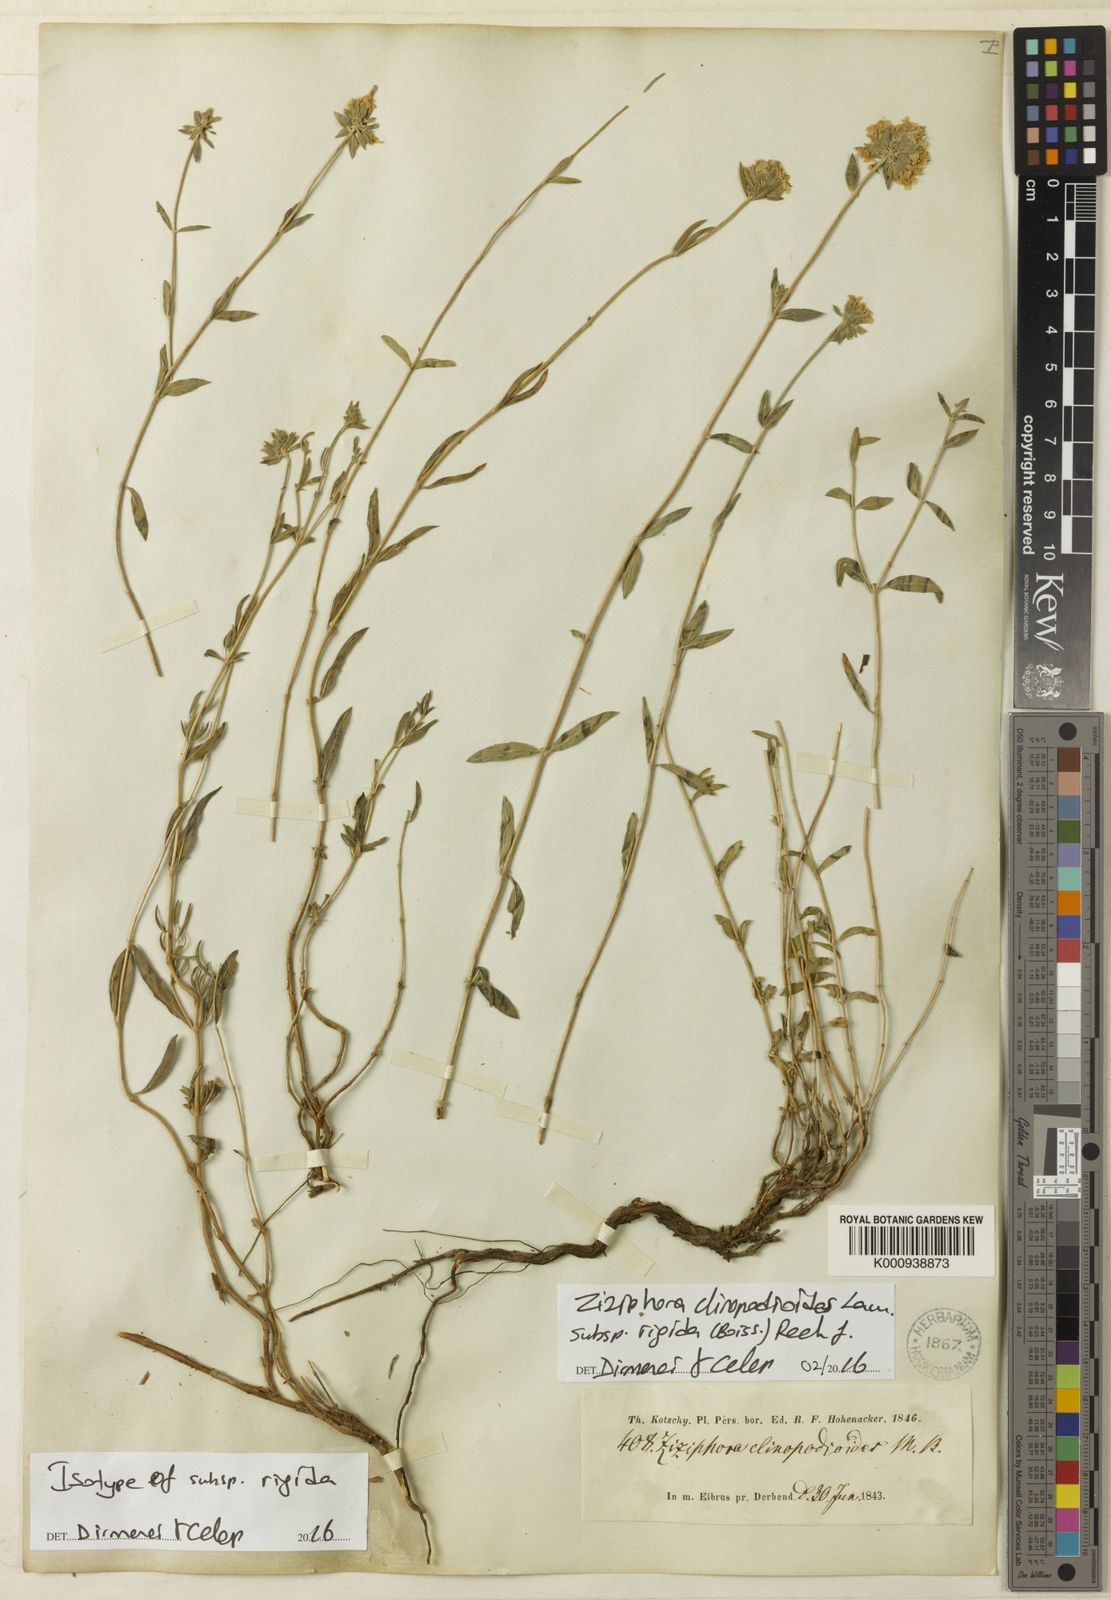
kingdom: Plantae
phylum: Tracheophyta
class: Magnoliopsida
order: Lamiales
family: Lamiaceae
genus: Ziziphora
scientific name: Ziziphora clinopodioides
